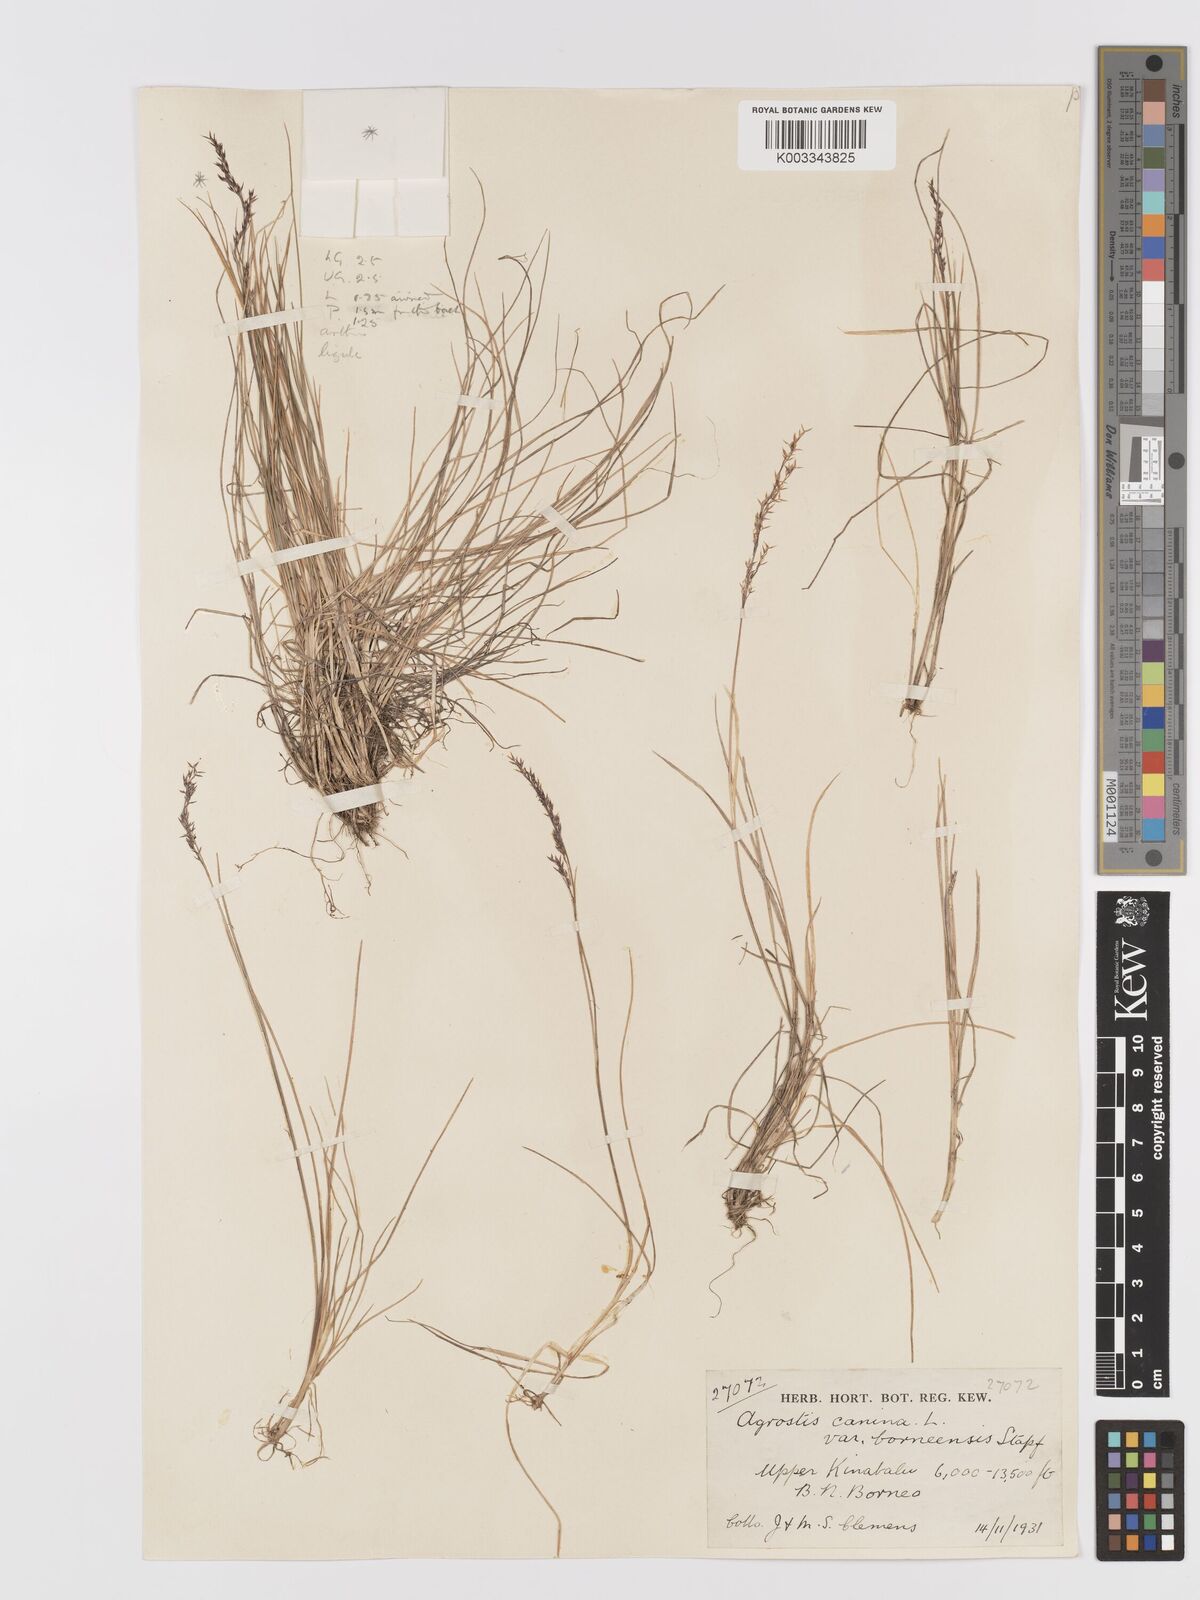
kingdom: Plantae
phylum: Tracheophyta
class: Liliopsida
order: Poales
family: Poaceae
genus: Agrostis
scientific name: Agrostis infirma
